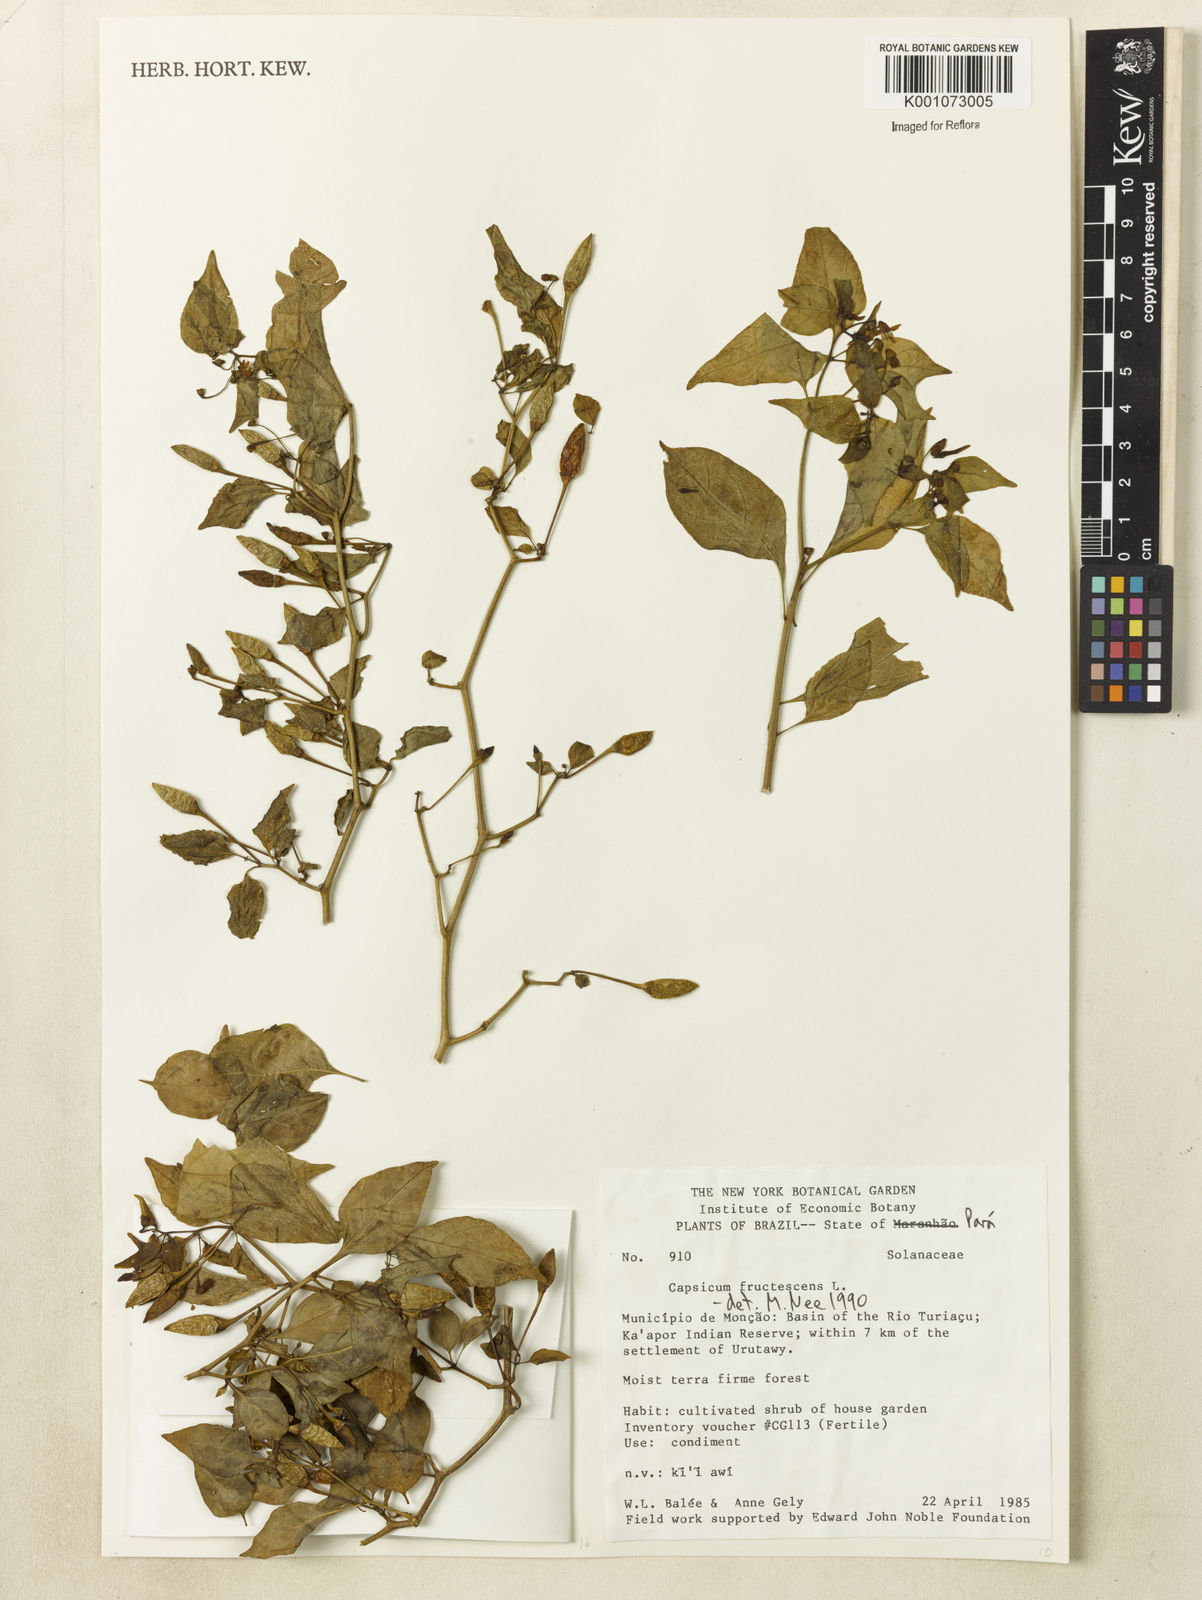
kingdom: Plantae
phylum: Tracheophyta
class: Magnoliopsida
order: Solanales
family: Solanaceae
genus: Capsicum
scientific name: Capsicum frutescens
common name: Bird pepper
